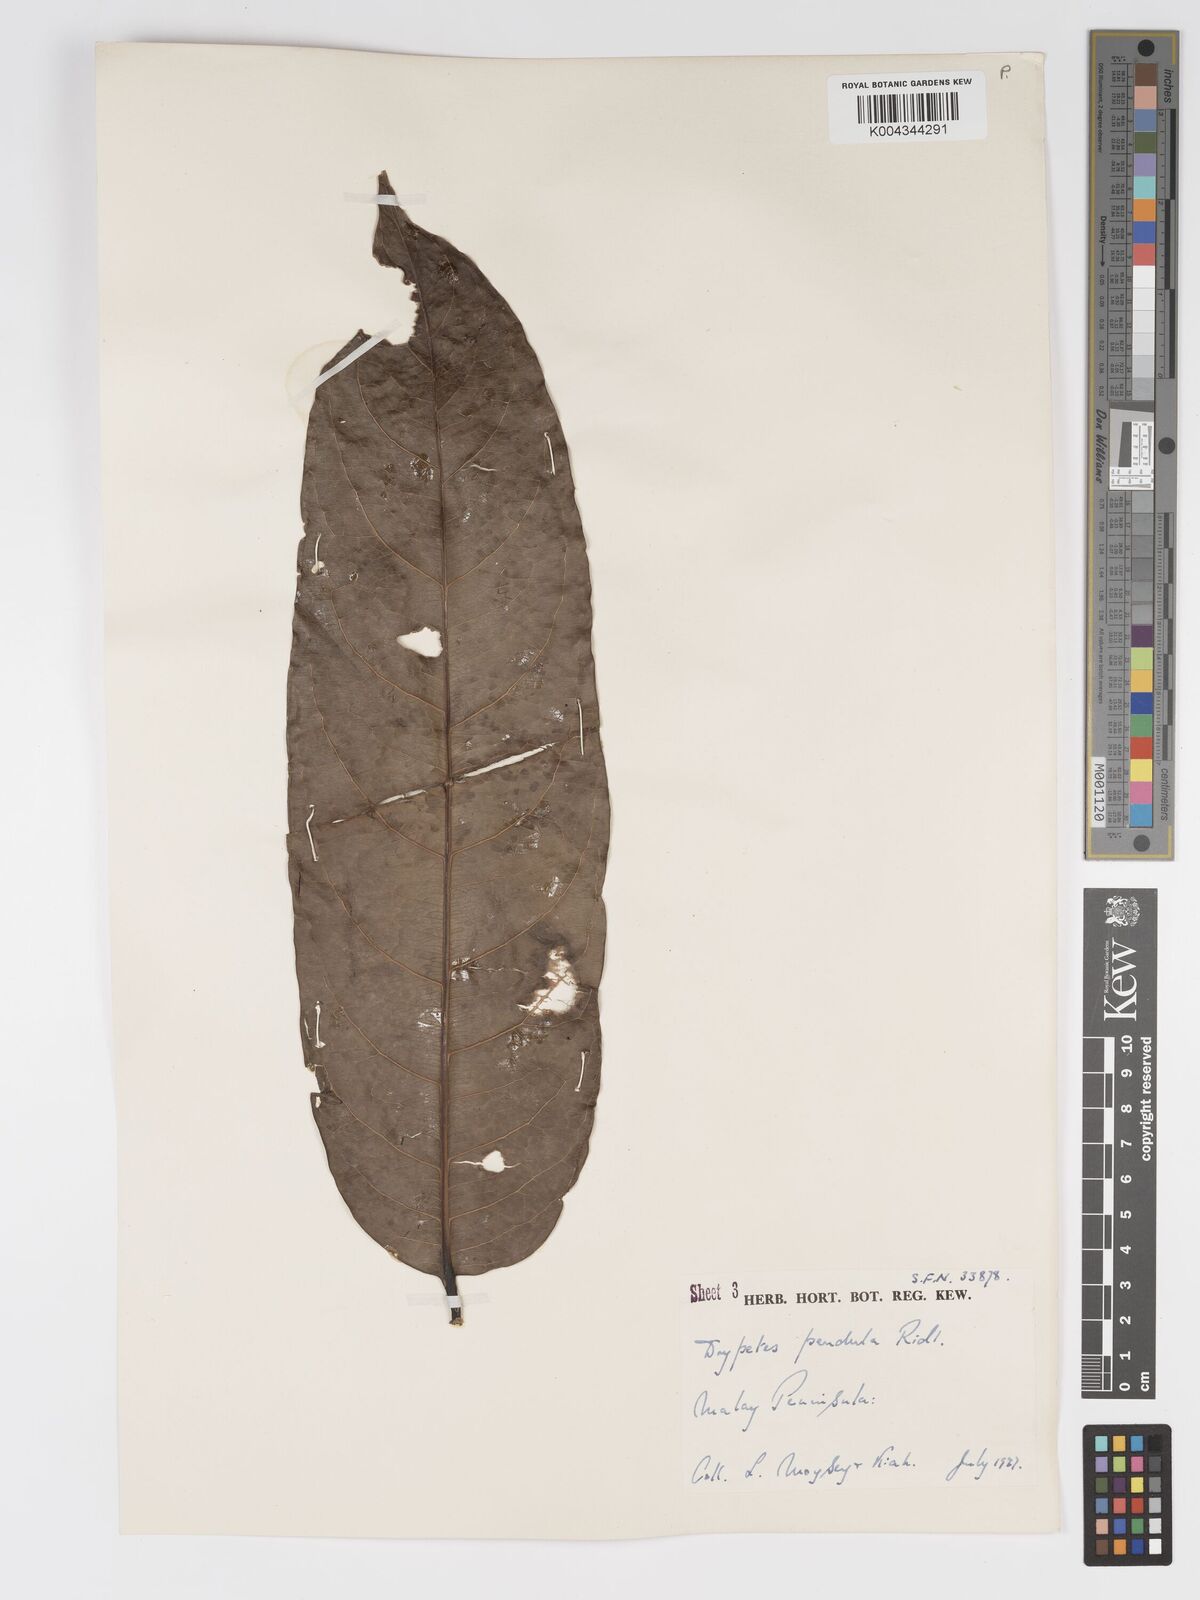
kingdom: Plantae
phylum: Tracheophyta
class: Magnoliopsida
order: Malpighiales
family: Putranjivaceae
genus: Drypetes
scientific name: Drypetes pendula
